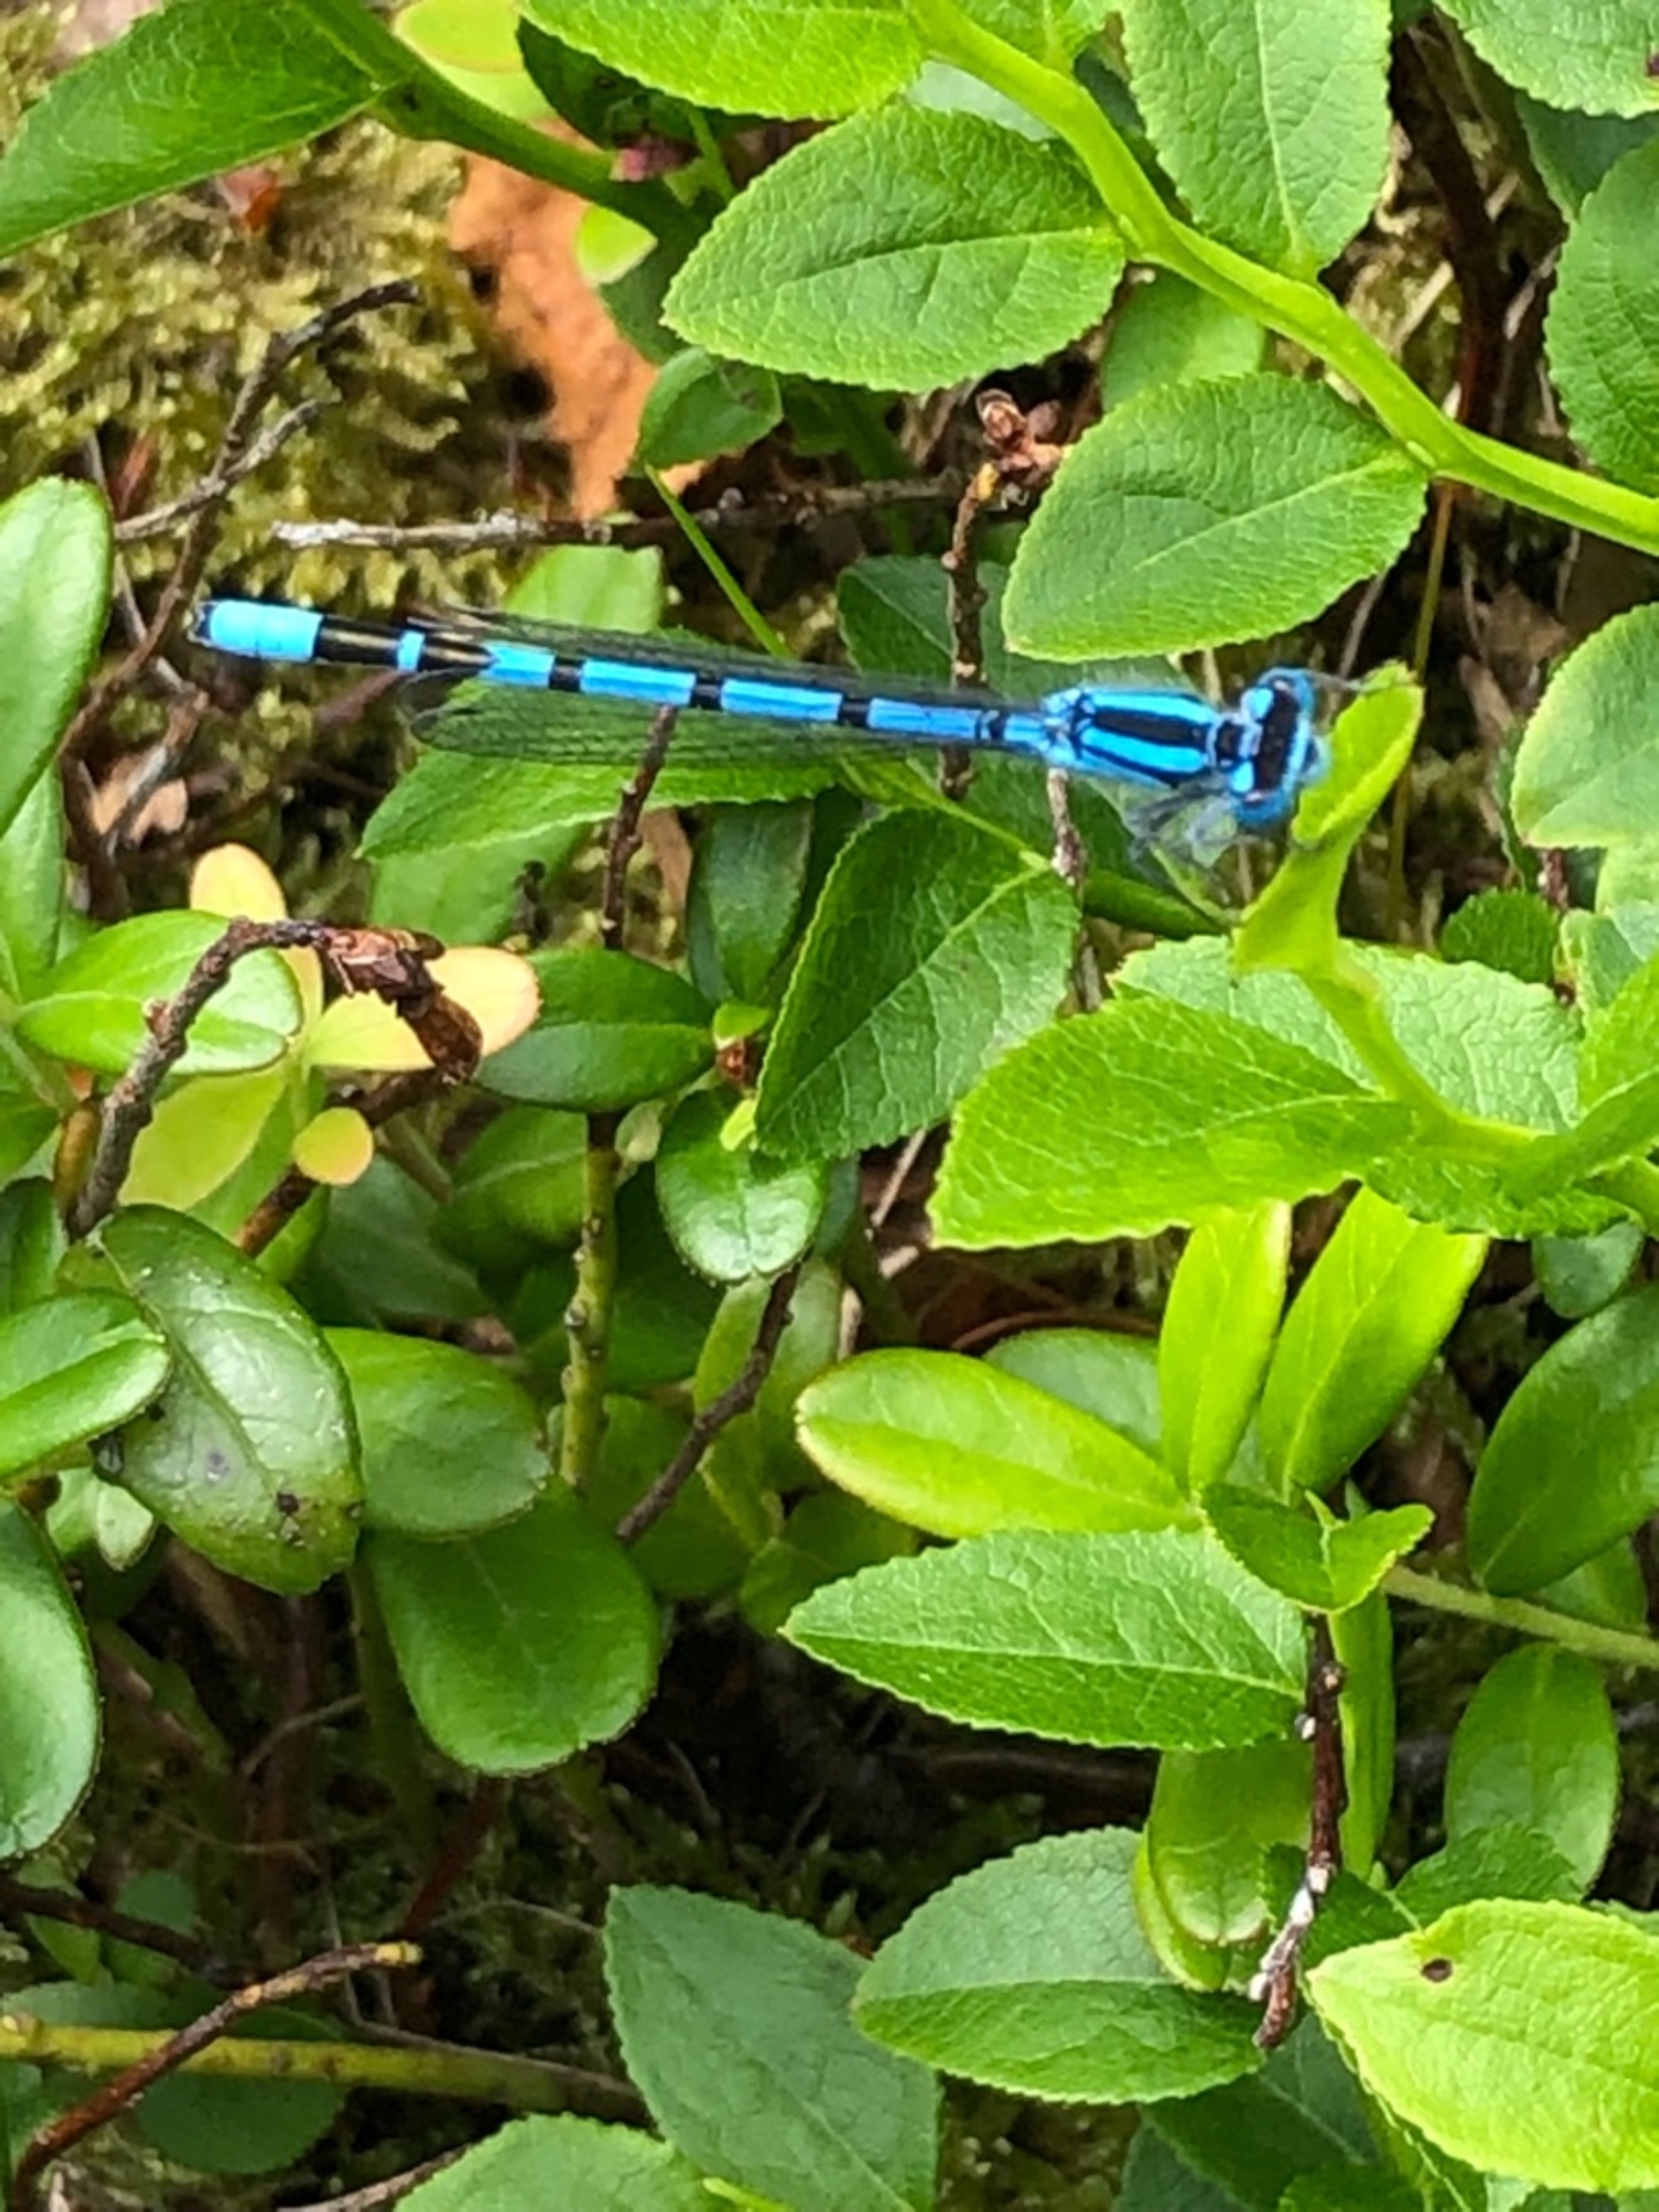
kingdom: Animalia
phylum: Arthropoda
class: Insecta
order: Odonata
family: Coenagrionidae
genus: Enallagma
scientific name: Enallagma cyathigerum
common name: Almindelig vandnymfe
